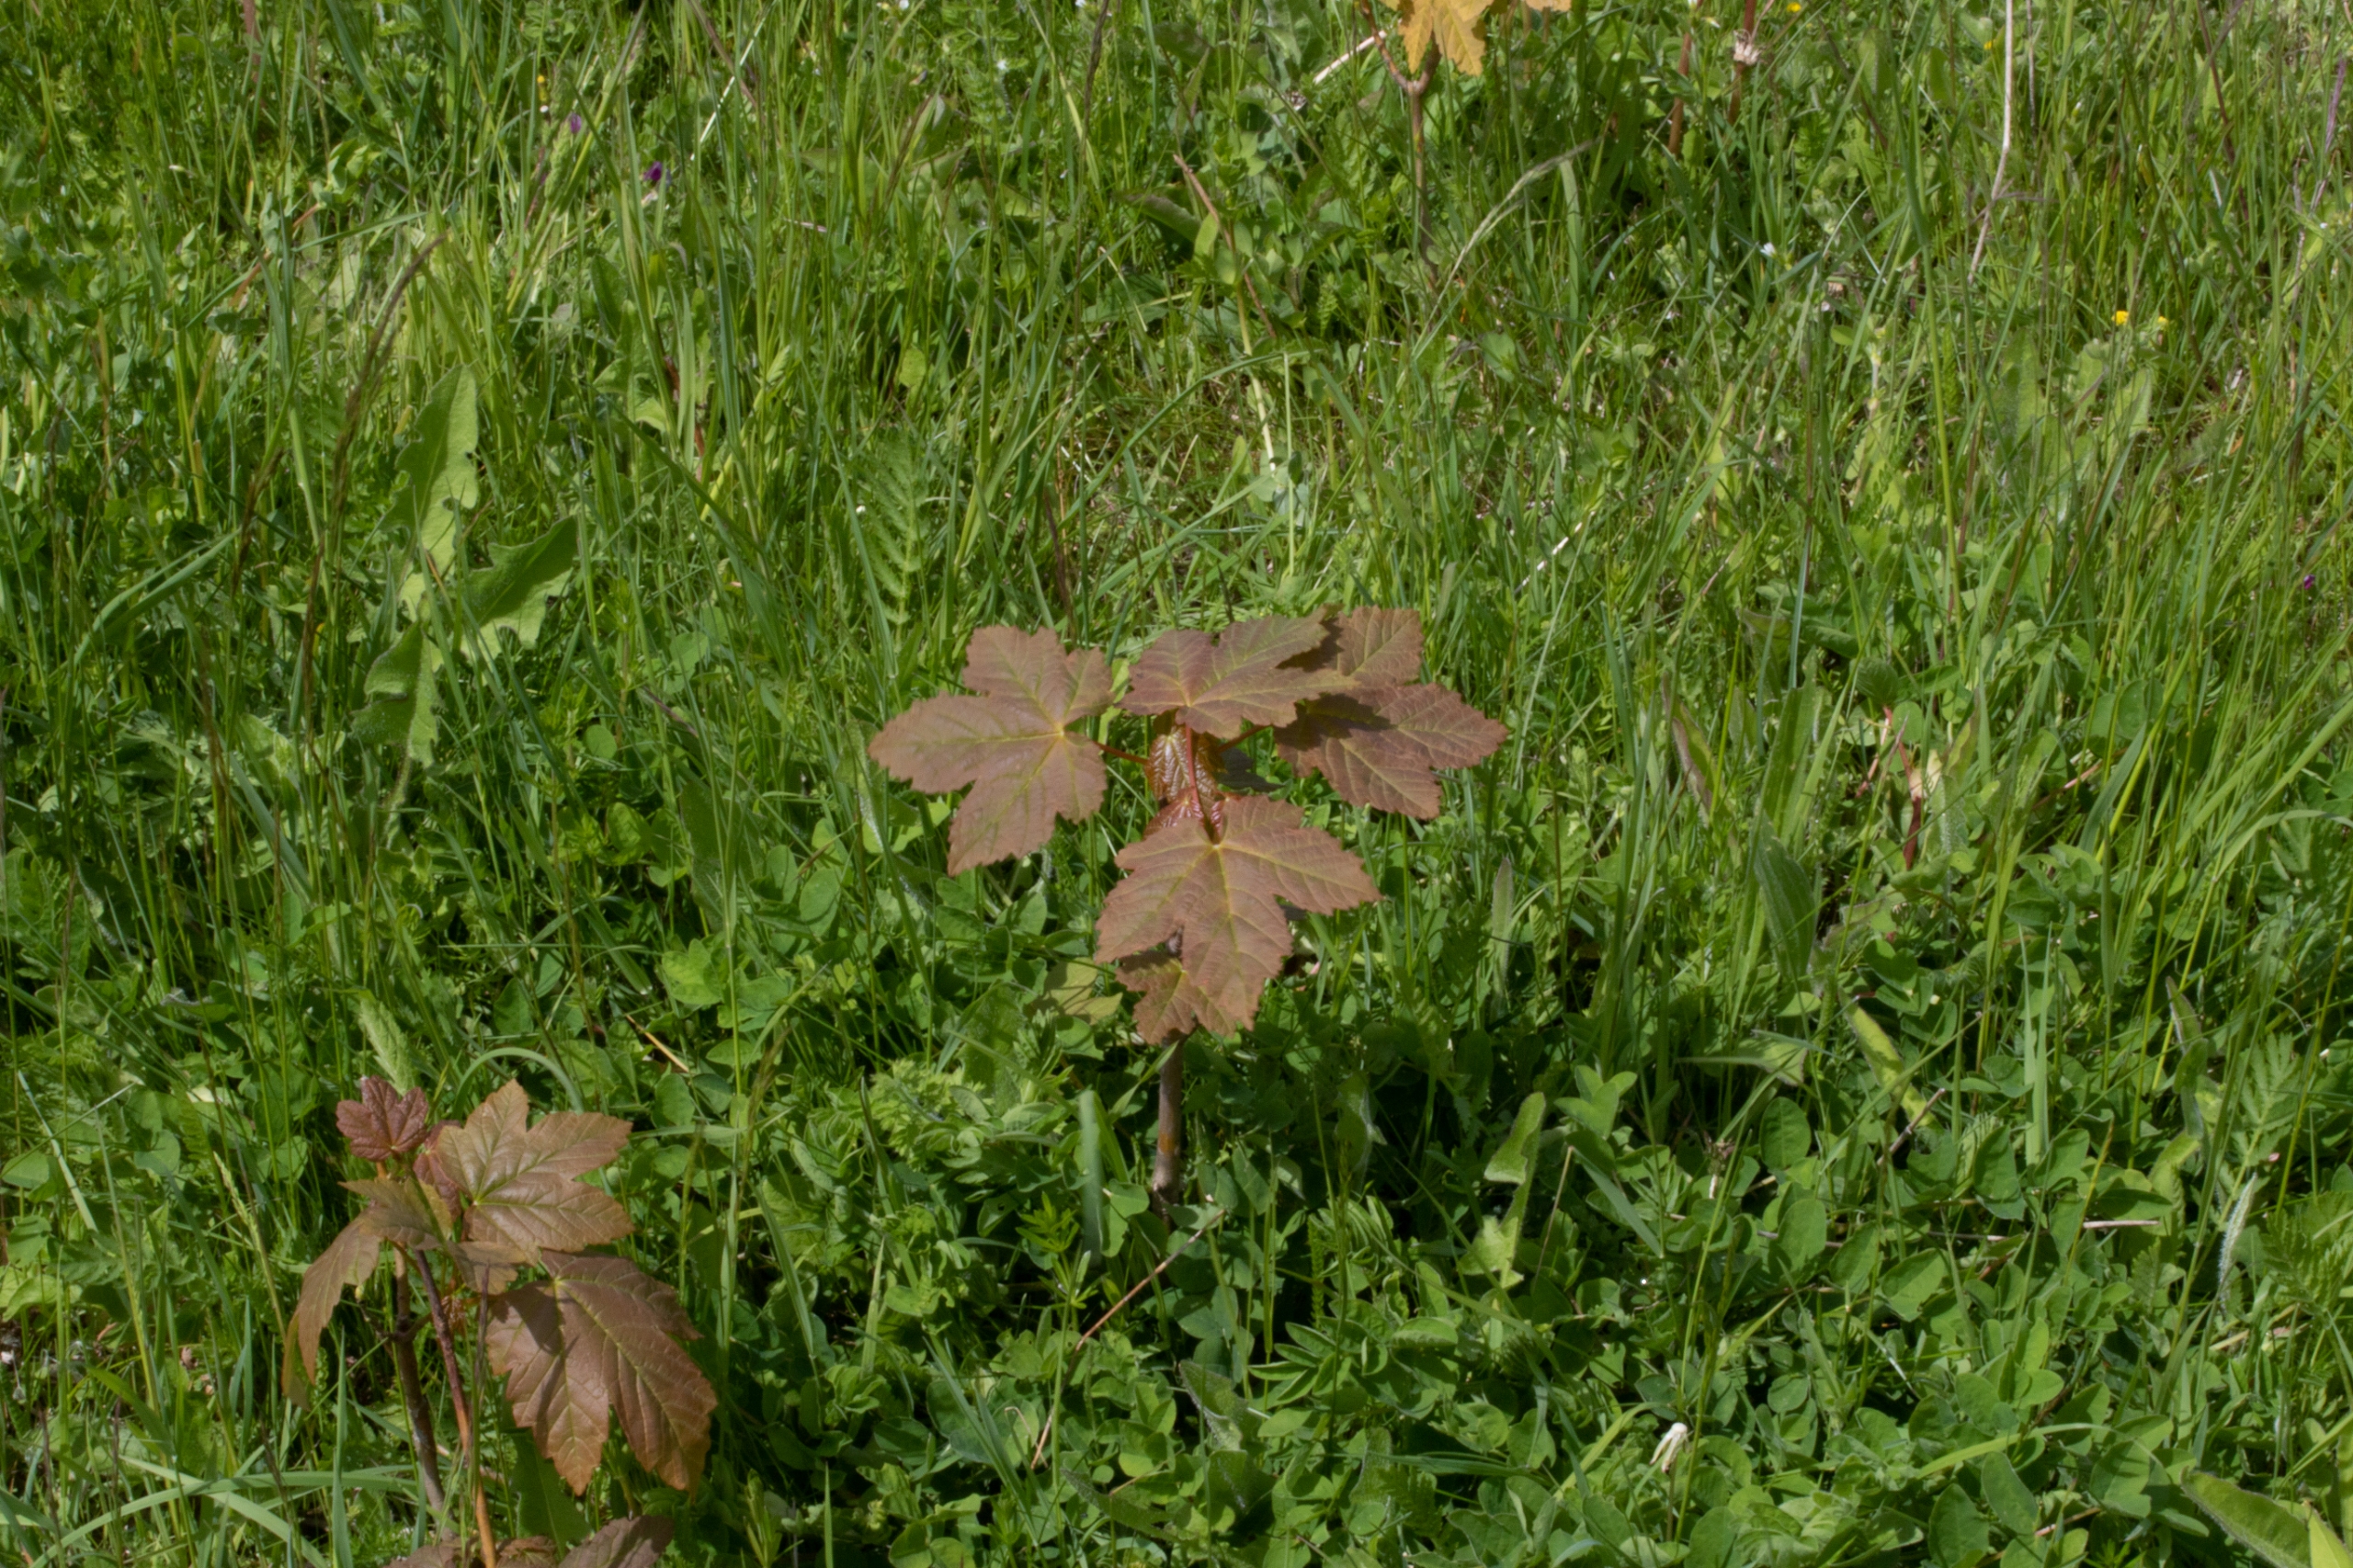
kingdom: Plantae
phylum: Tracheophyta
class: Magnoliopsida
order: Sapindales
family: Sapindaceae
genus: Acer
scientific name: Acer pseudoplatanus
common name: Ahorn
